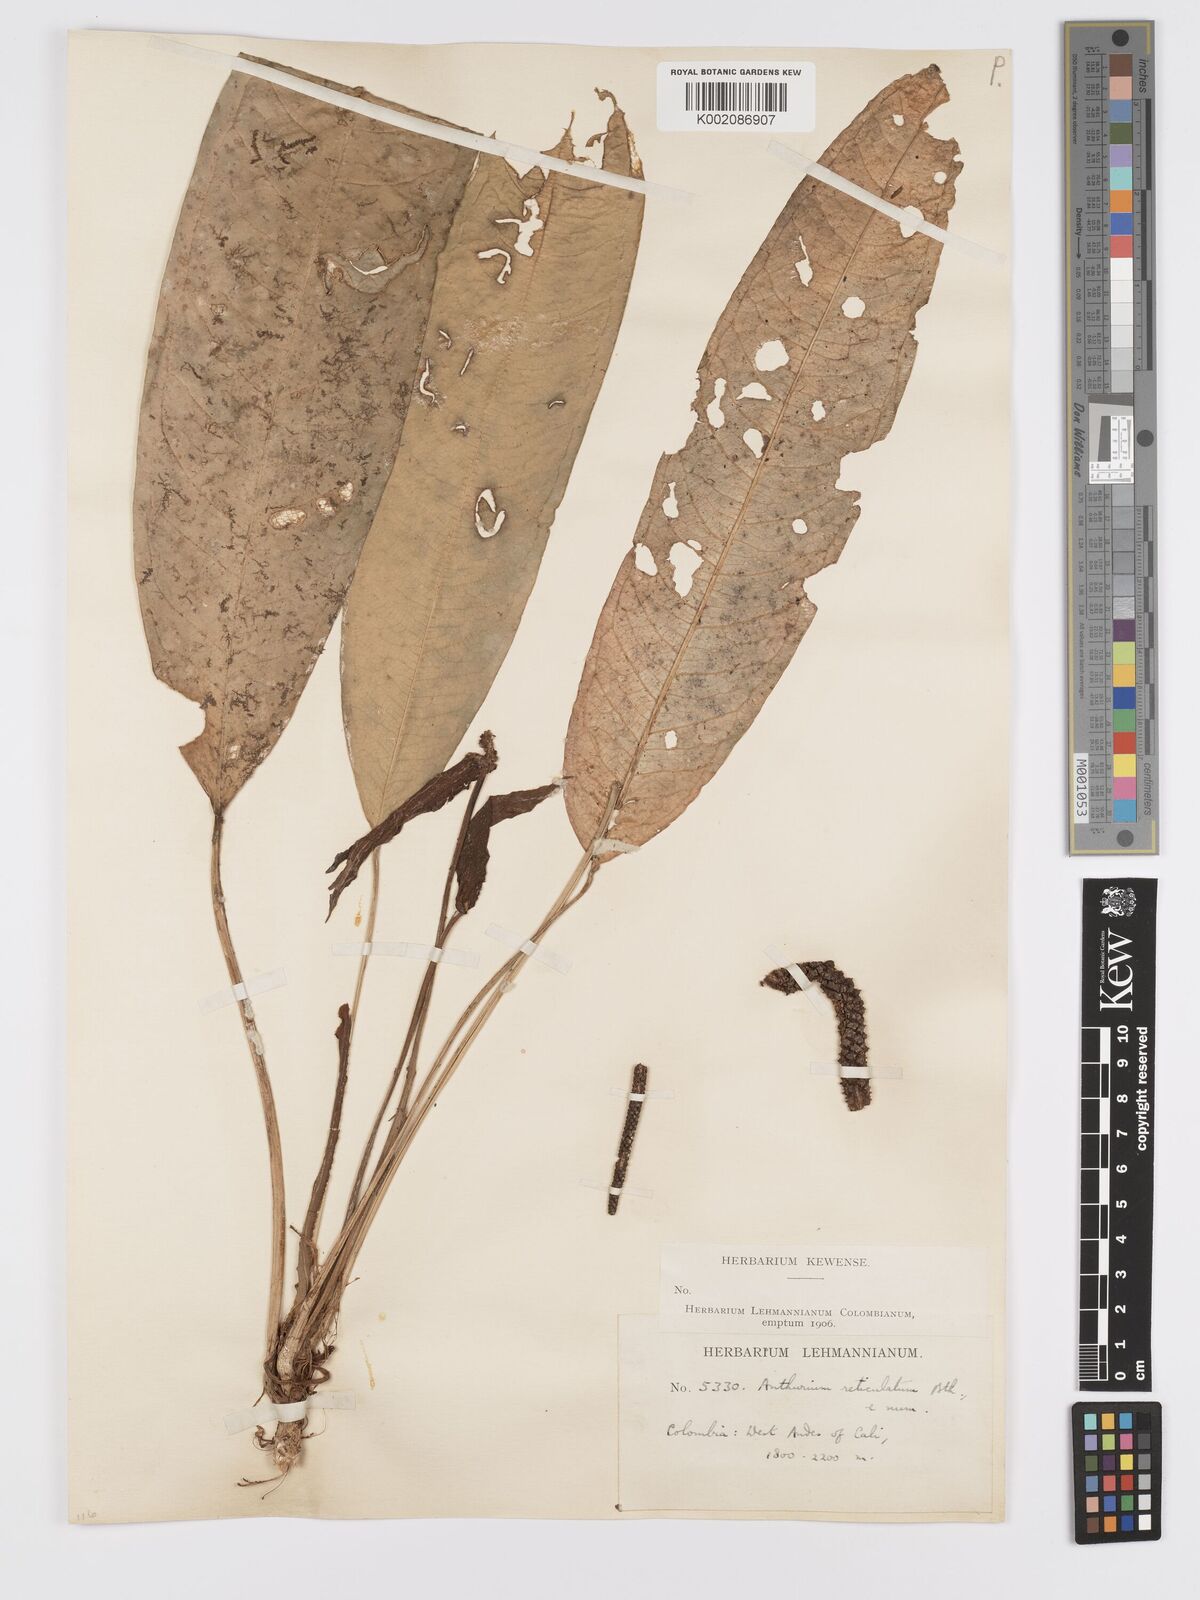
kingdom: Plantae
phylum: Tracheophyta
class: Liliopsida
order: Alismatales
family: Araceae
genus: Anthurium
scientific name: Anthurium reticulatum
